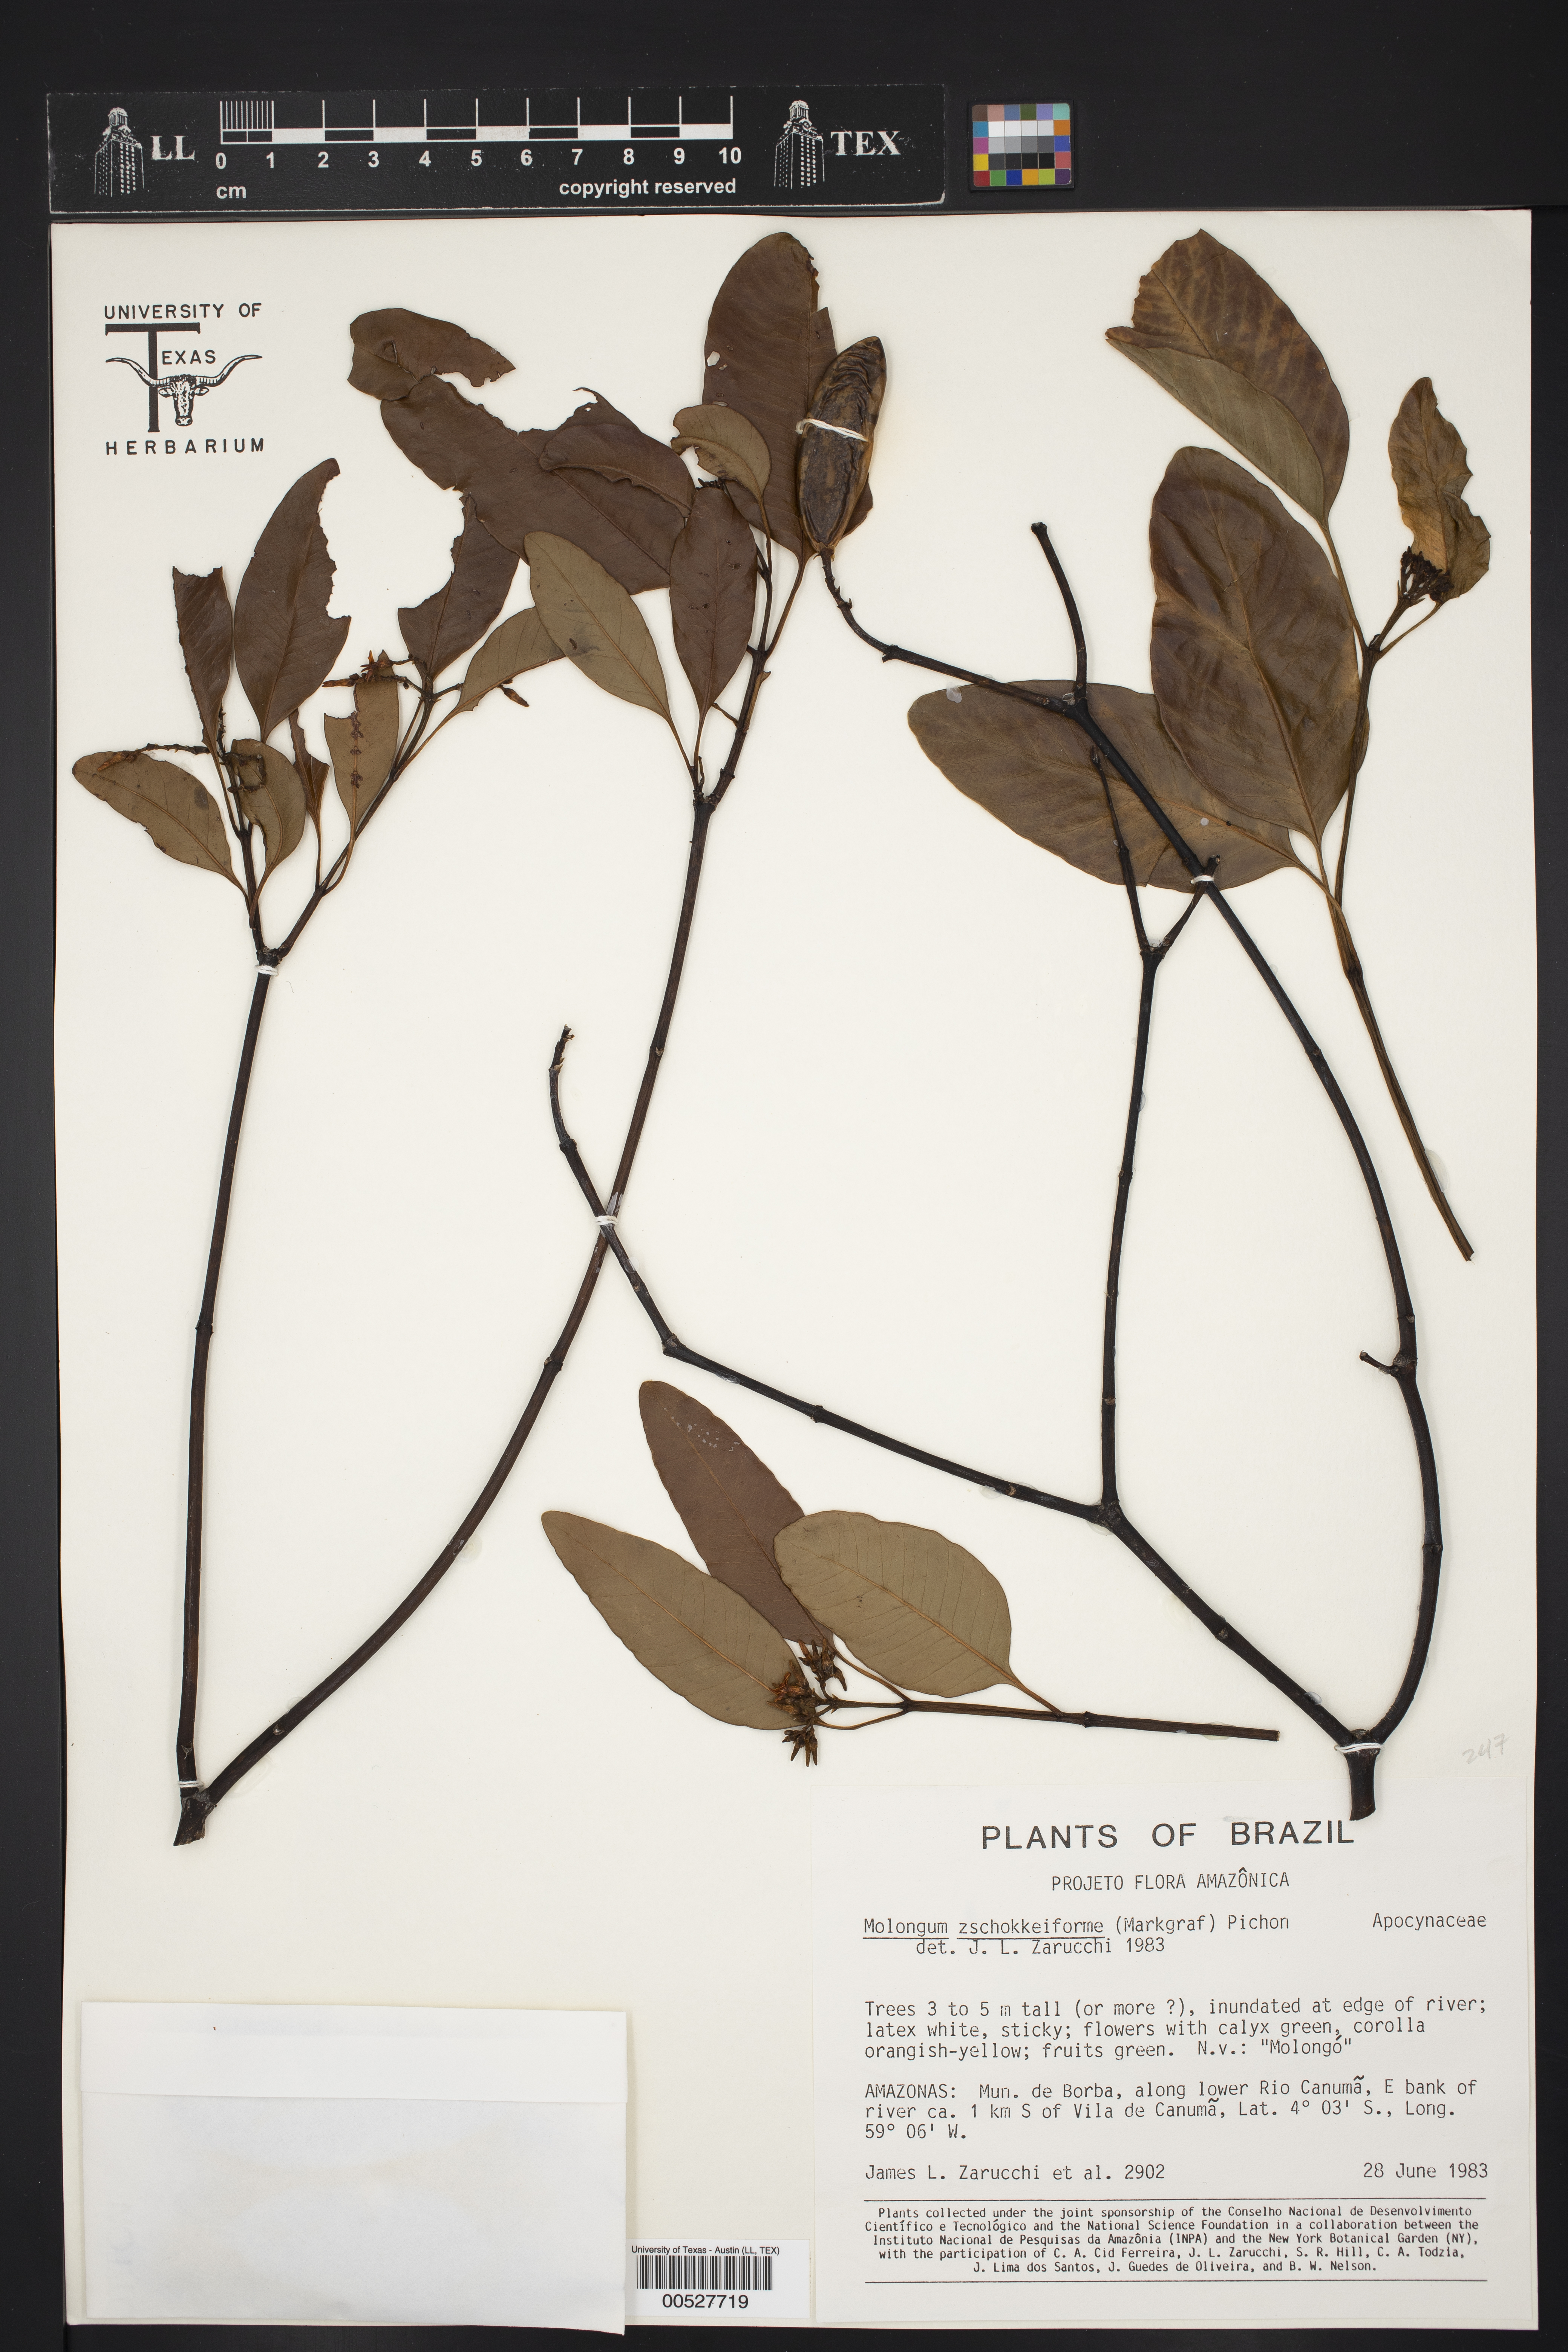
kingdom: Plantae
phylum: Tracheophyta
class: Magnoliopsida
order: Gentianales
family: Apocynaceae
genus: Molongum
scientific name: Molongum zschokkeiforme
